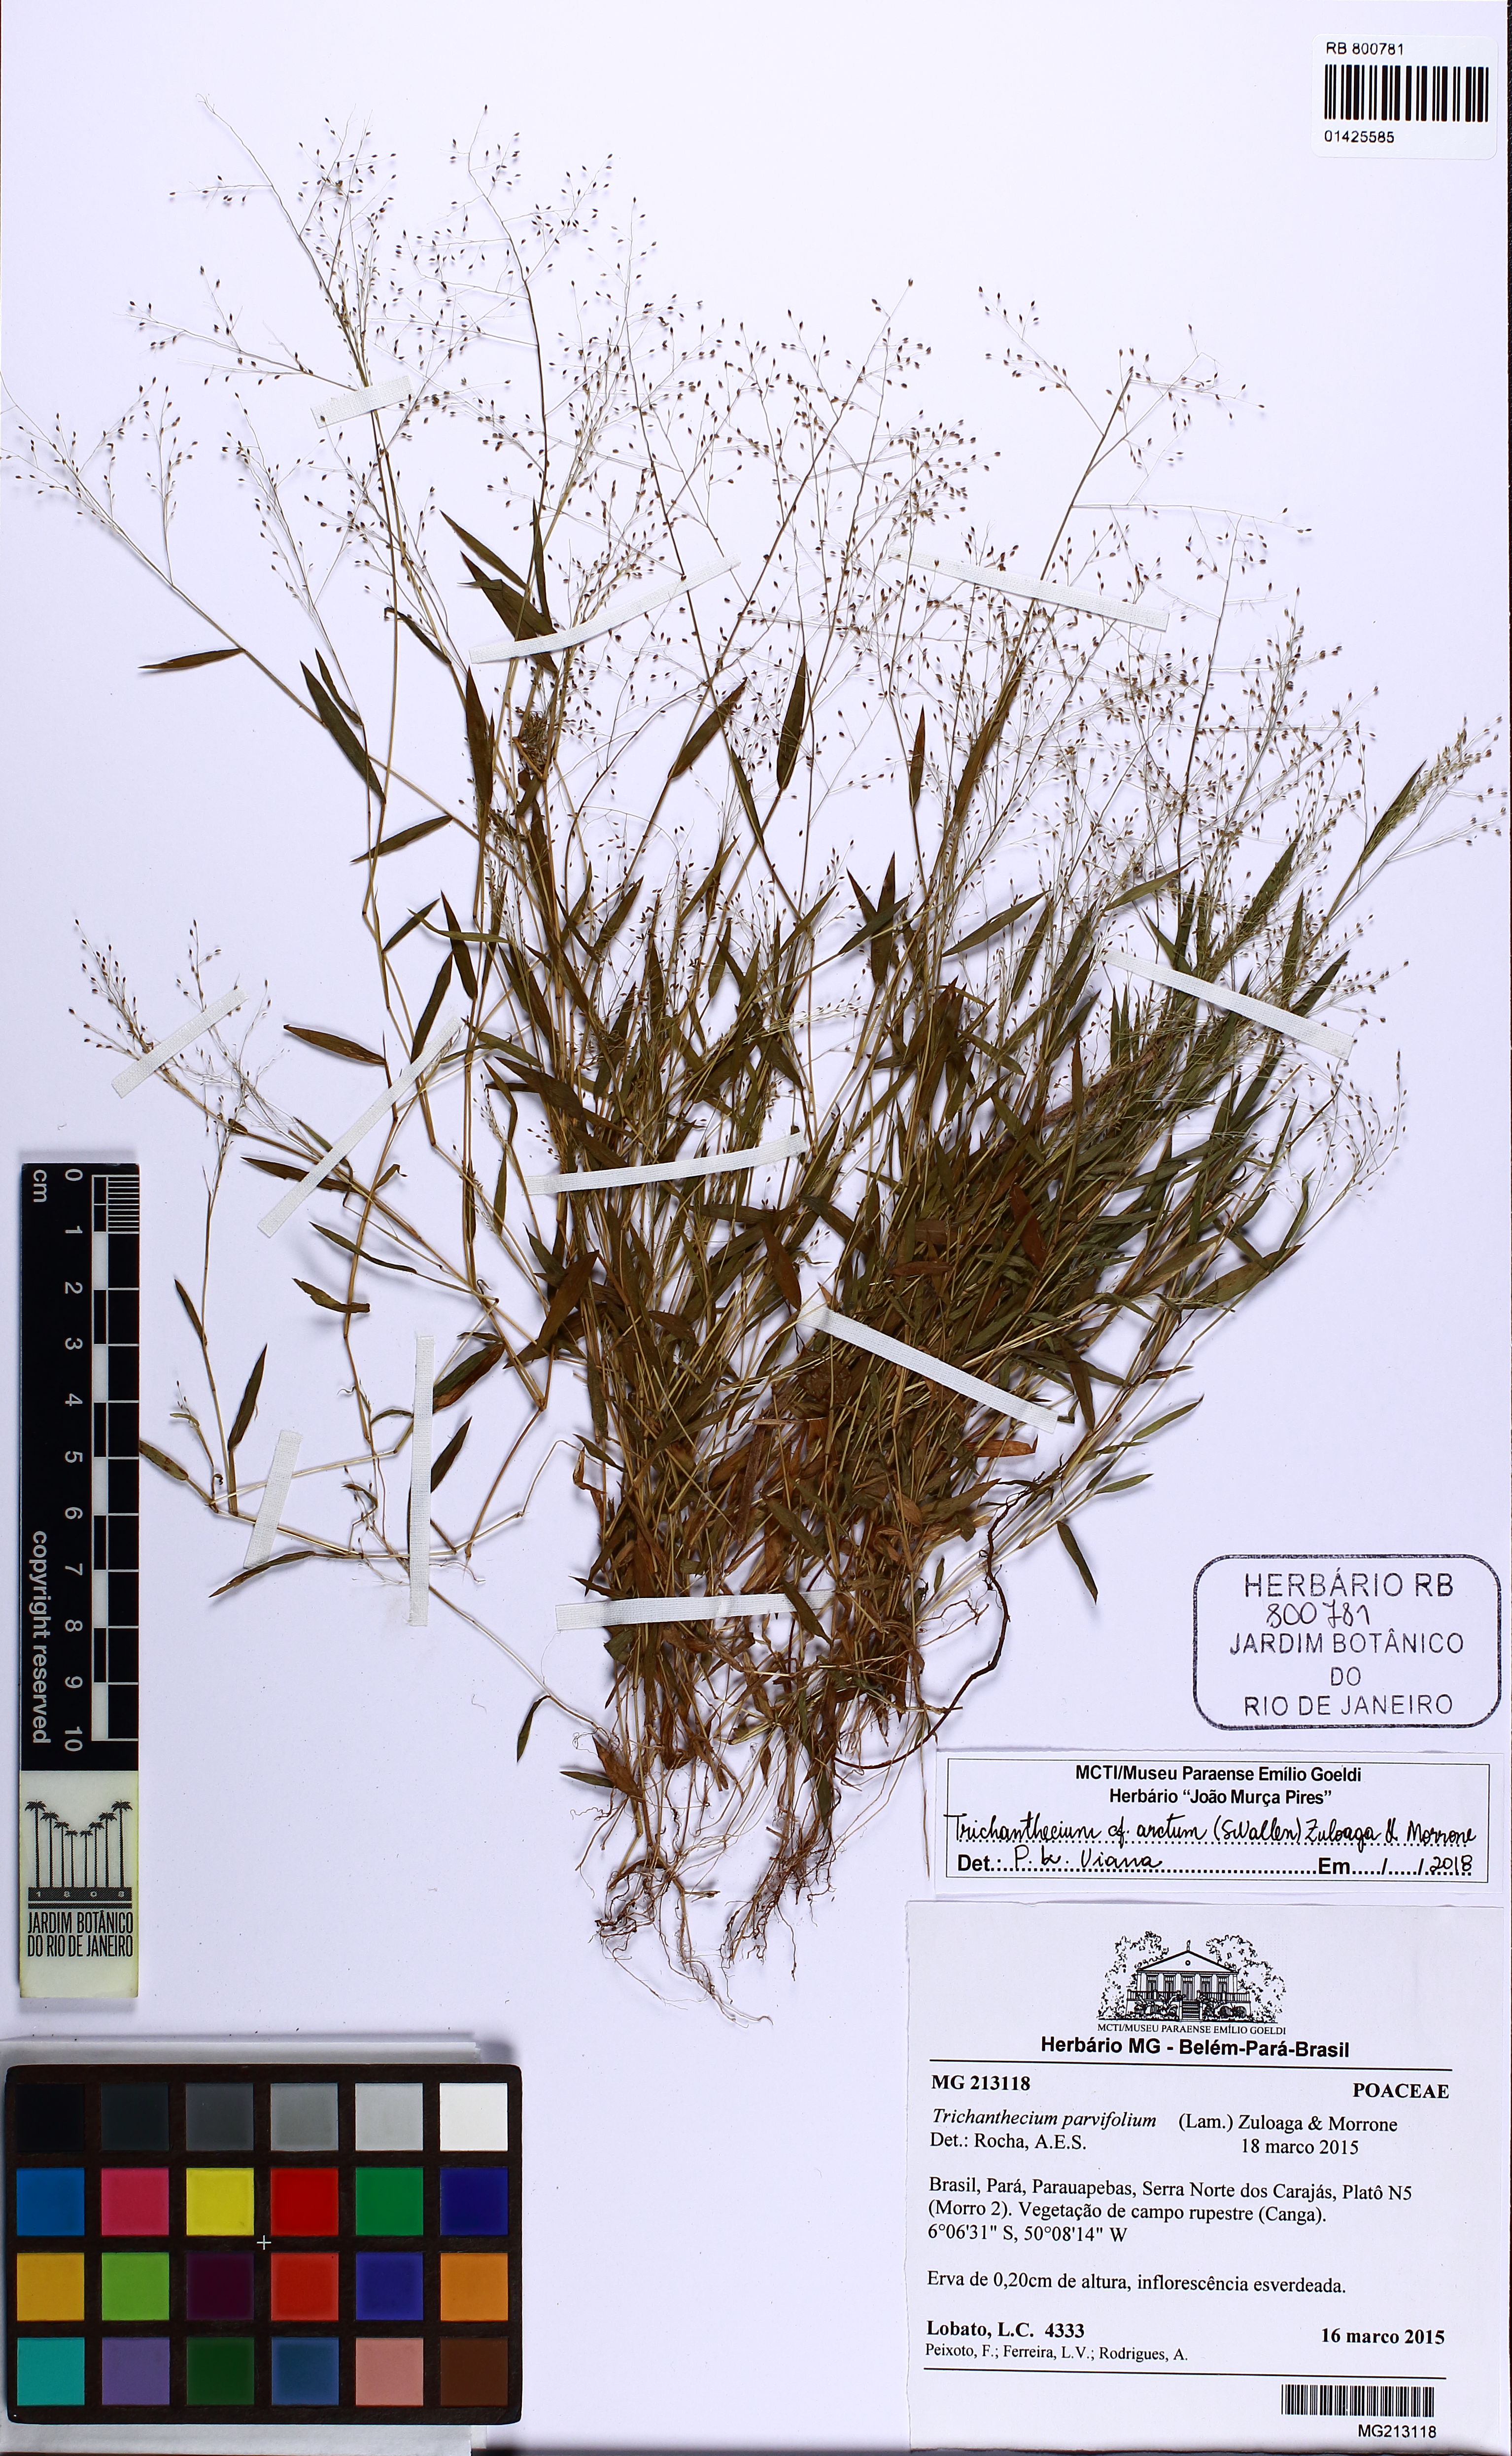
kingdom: Plantae
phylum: Tracheophyta
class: Liliopsida
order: Poales
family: Poaceae
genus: Trichanthecium
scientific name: Trichanthecium arctum
